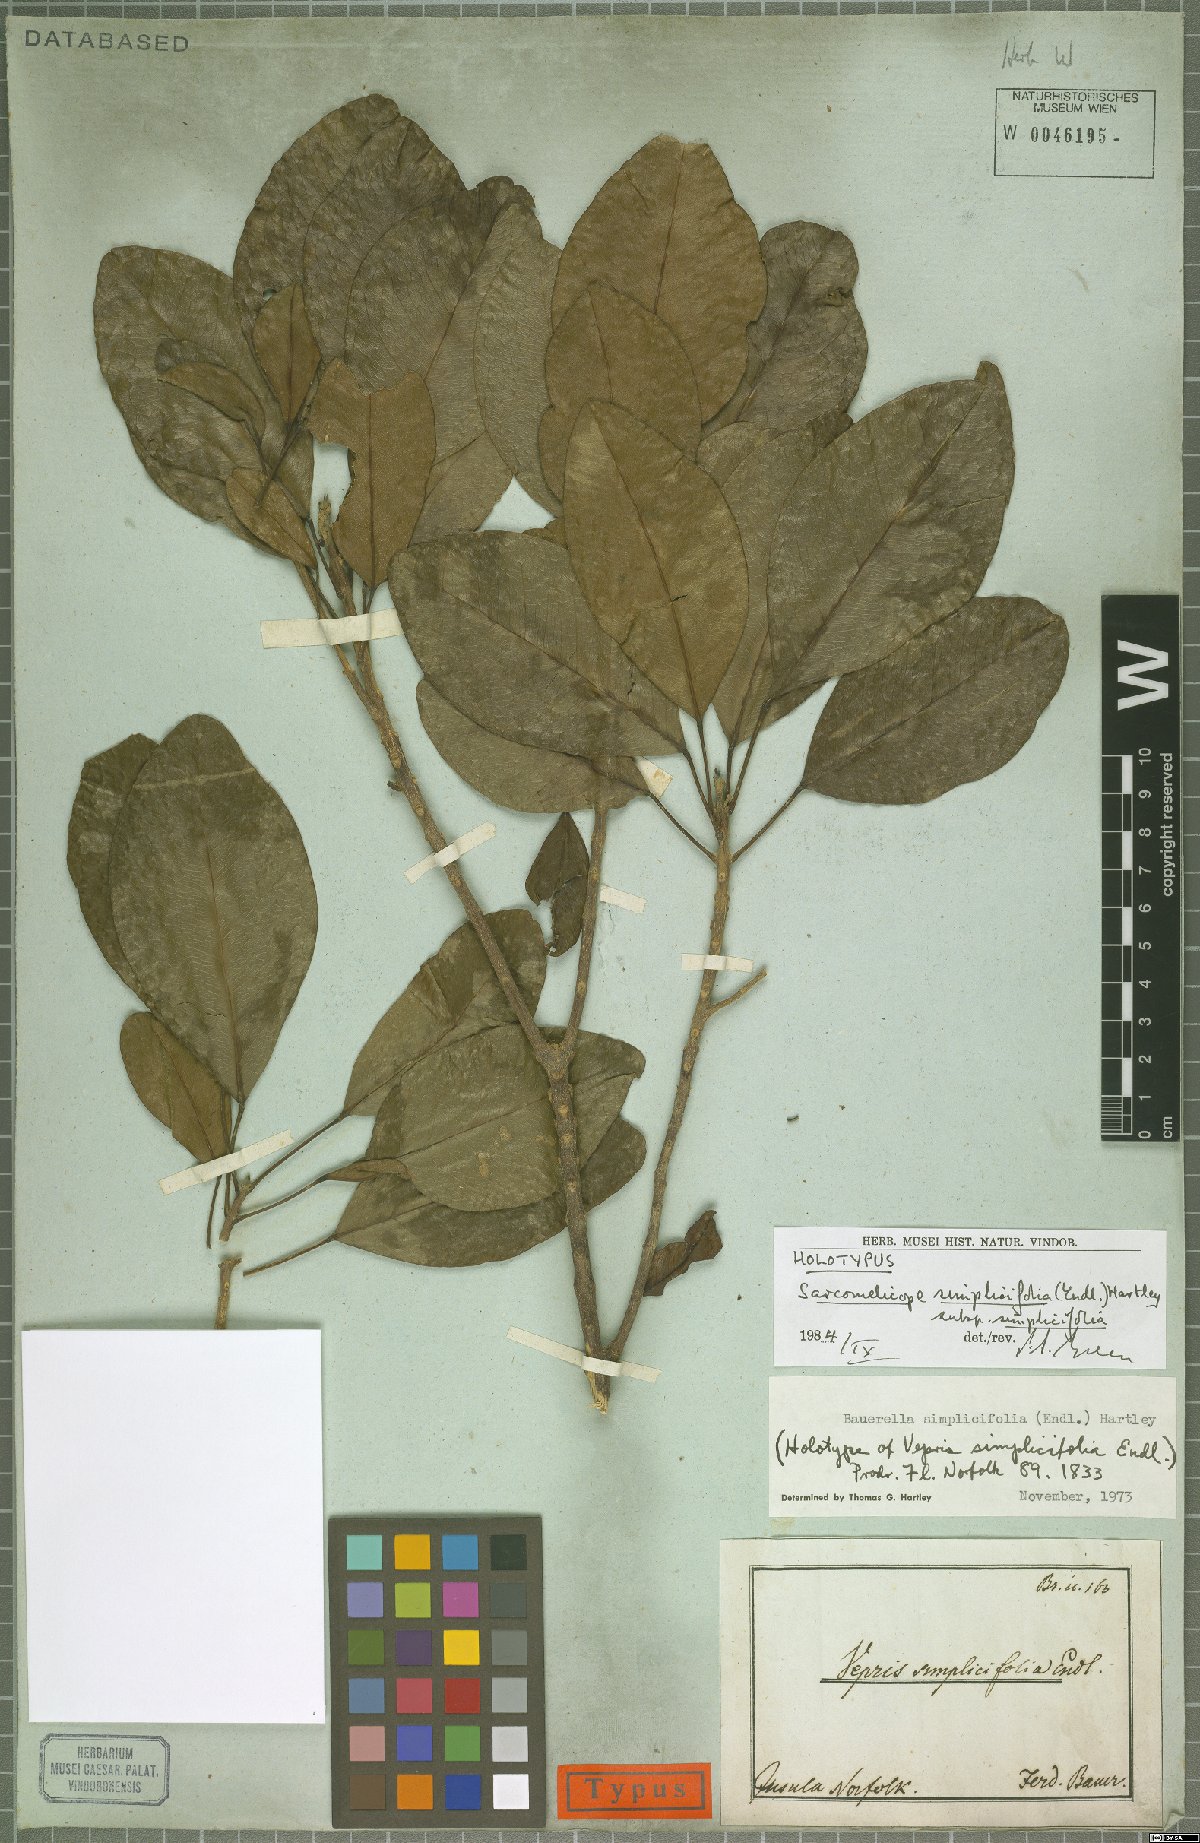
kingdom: Plantae
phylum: Tracheophyta
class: Magnoliopsida
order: Sapindales
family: Rutaceae
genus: Sarcomelicope
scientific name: Sarcomelicope simplicifolia
